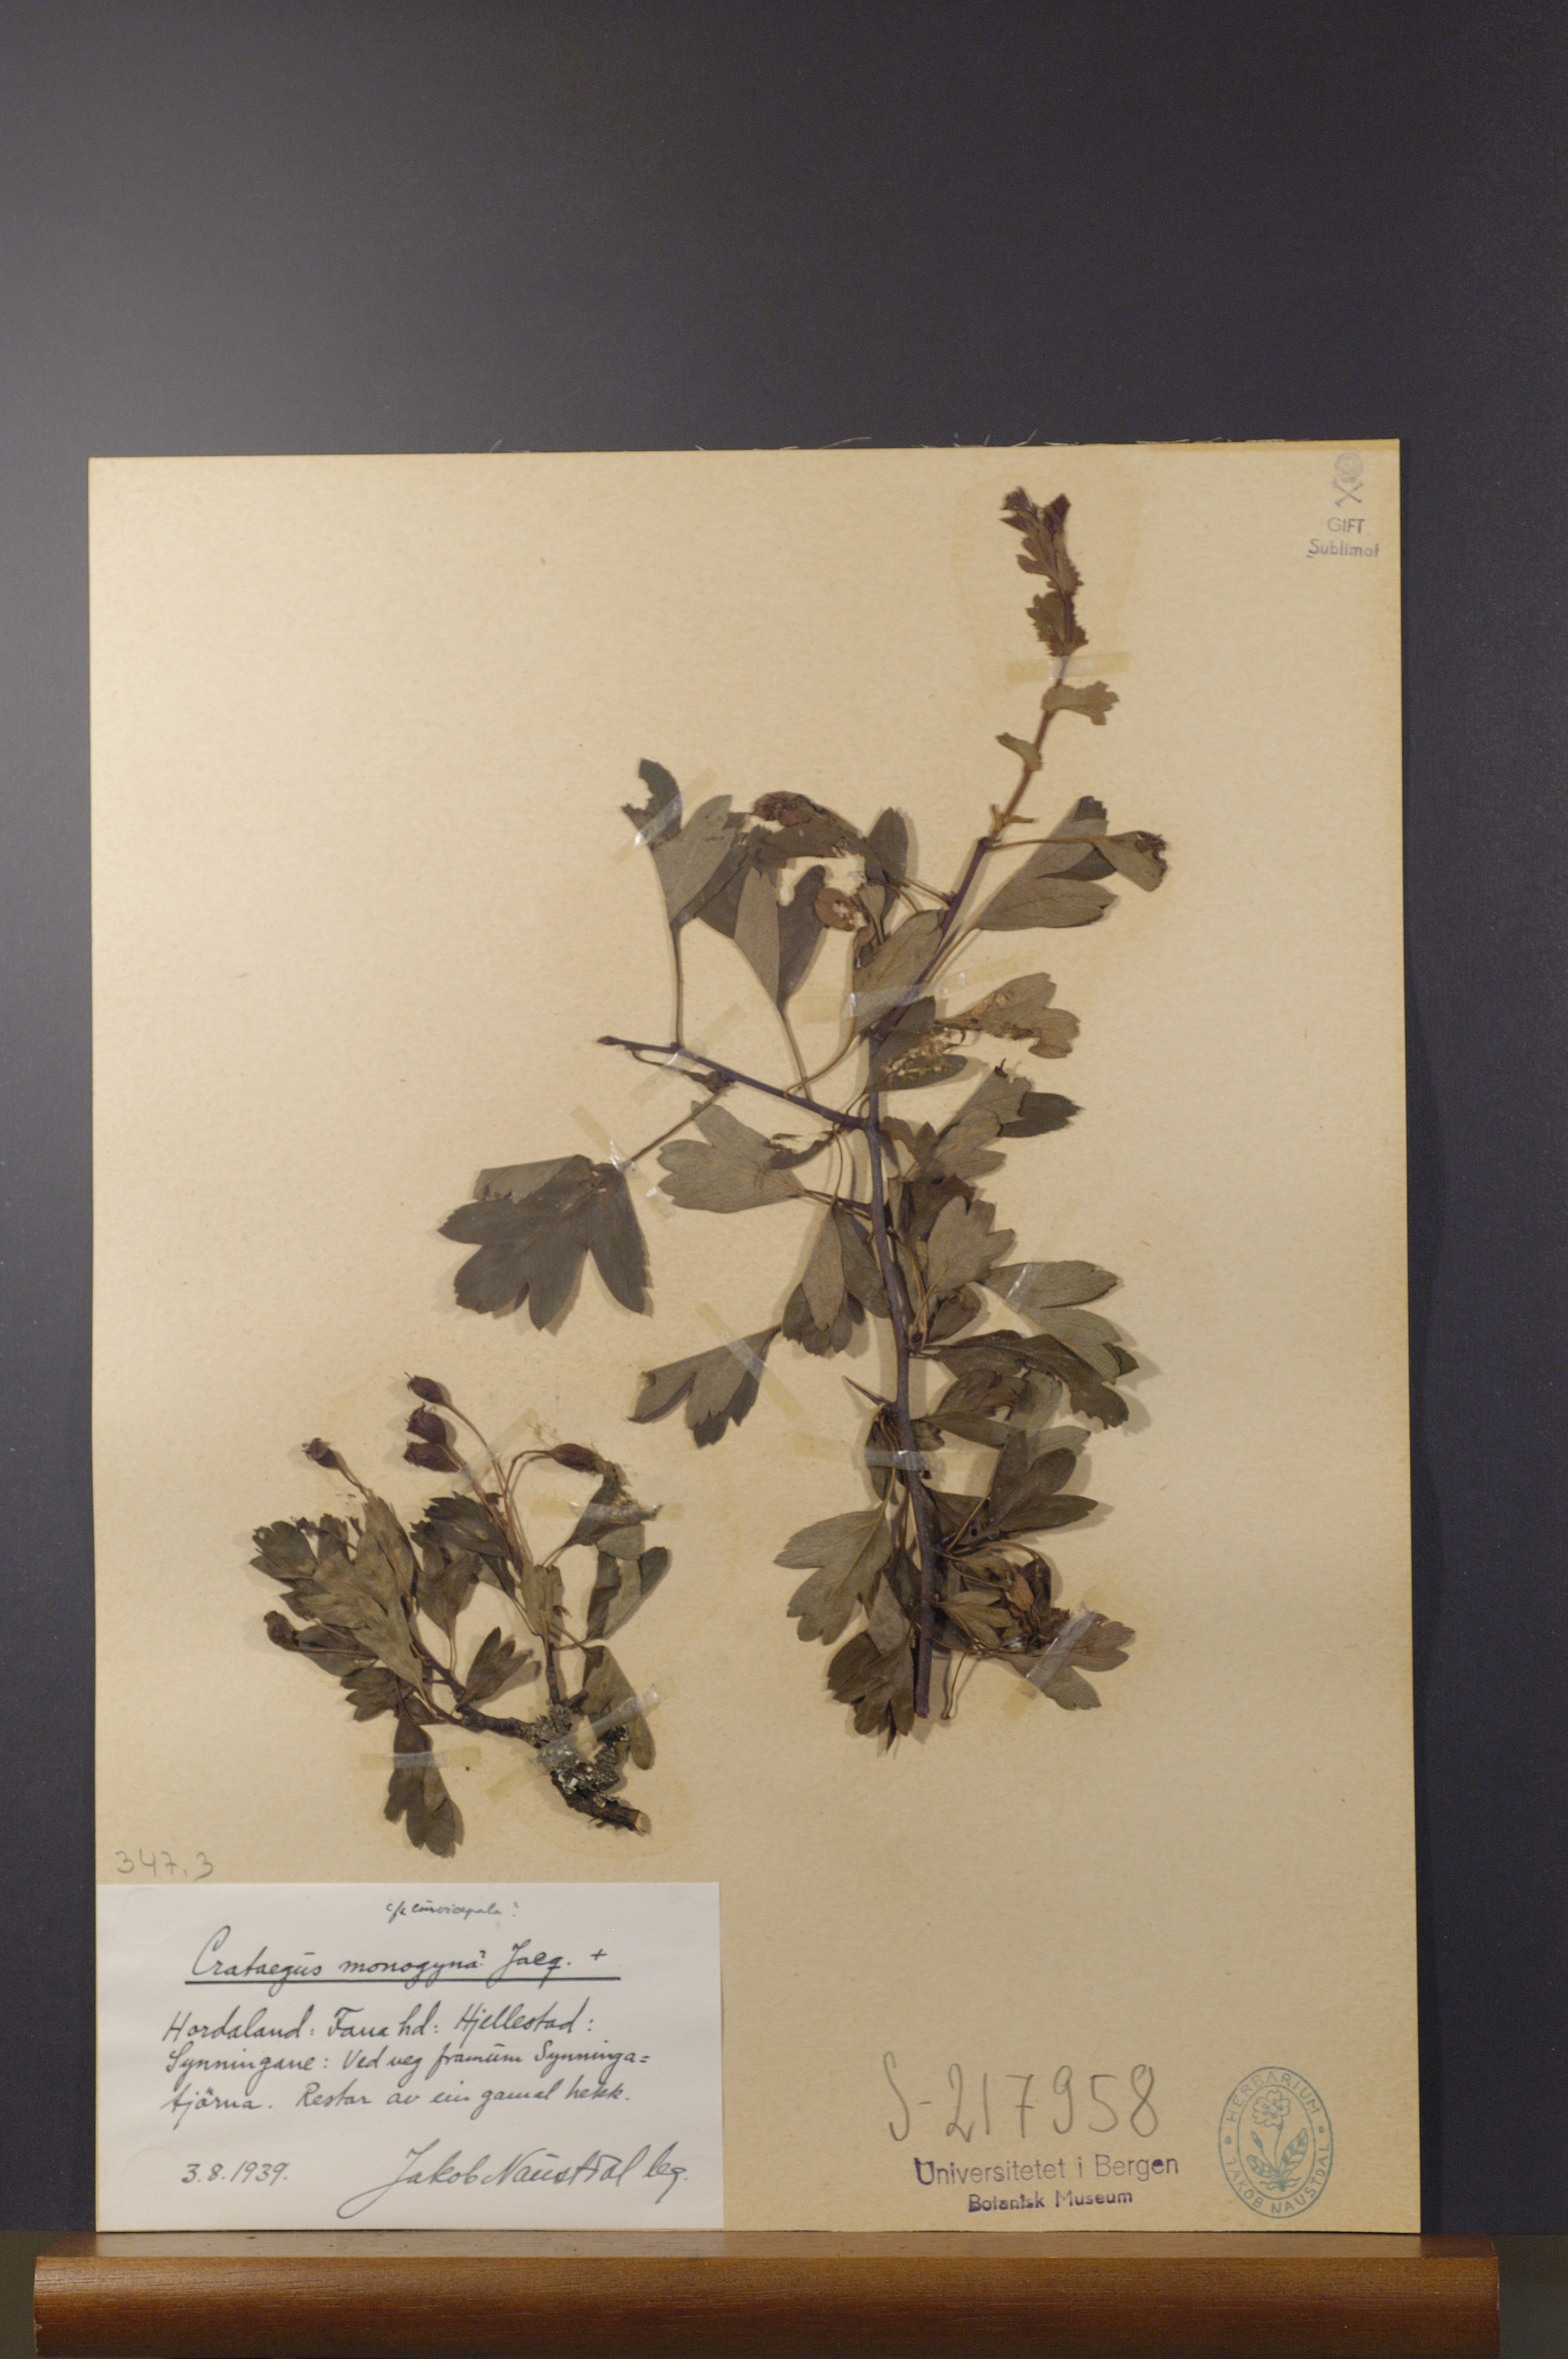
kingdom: Plantae
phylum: Tracheophyta
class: Magnoliopsida
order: Rosales
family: Rosaceae
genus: Crataegus
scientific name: Crataegus monogyna
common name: Hawthorn
